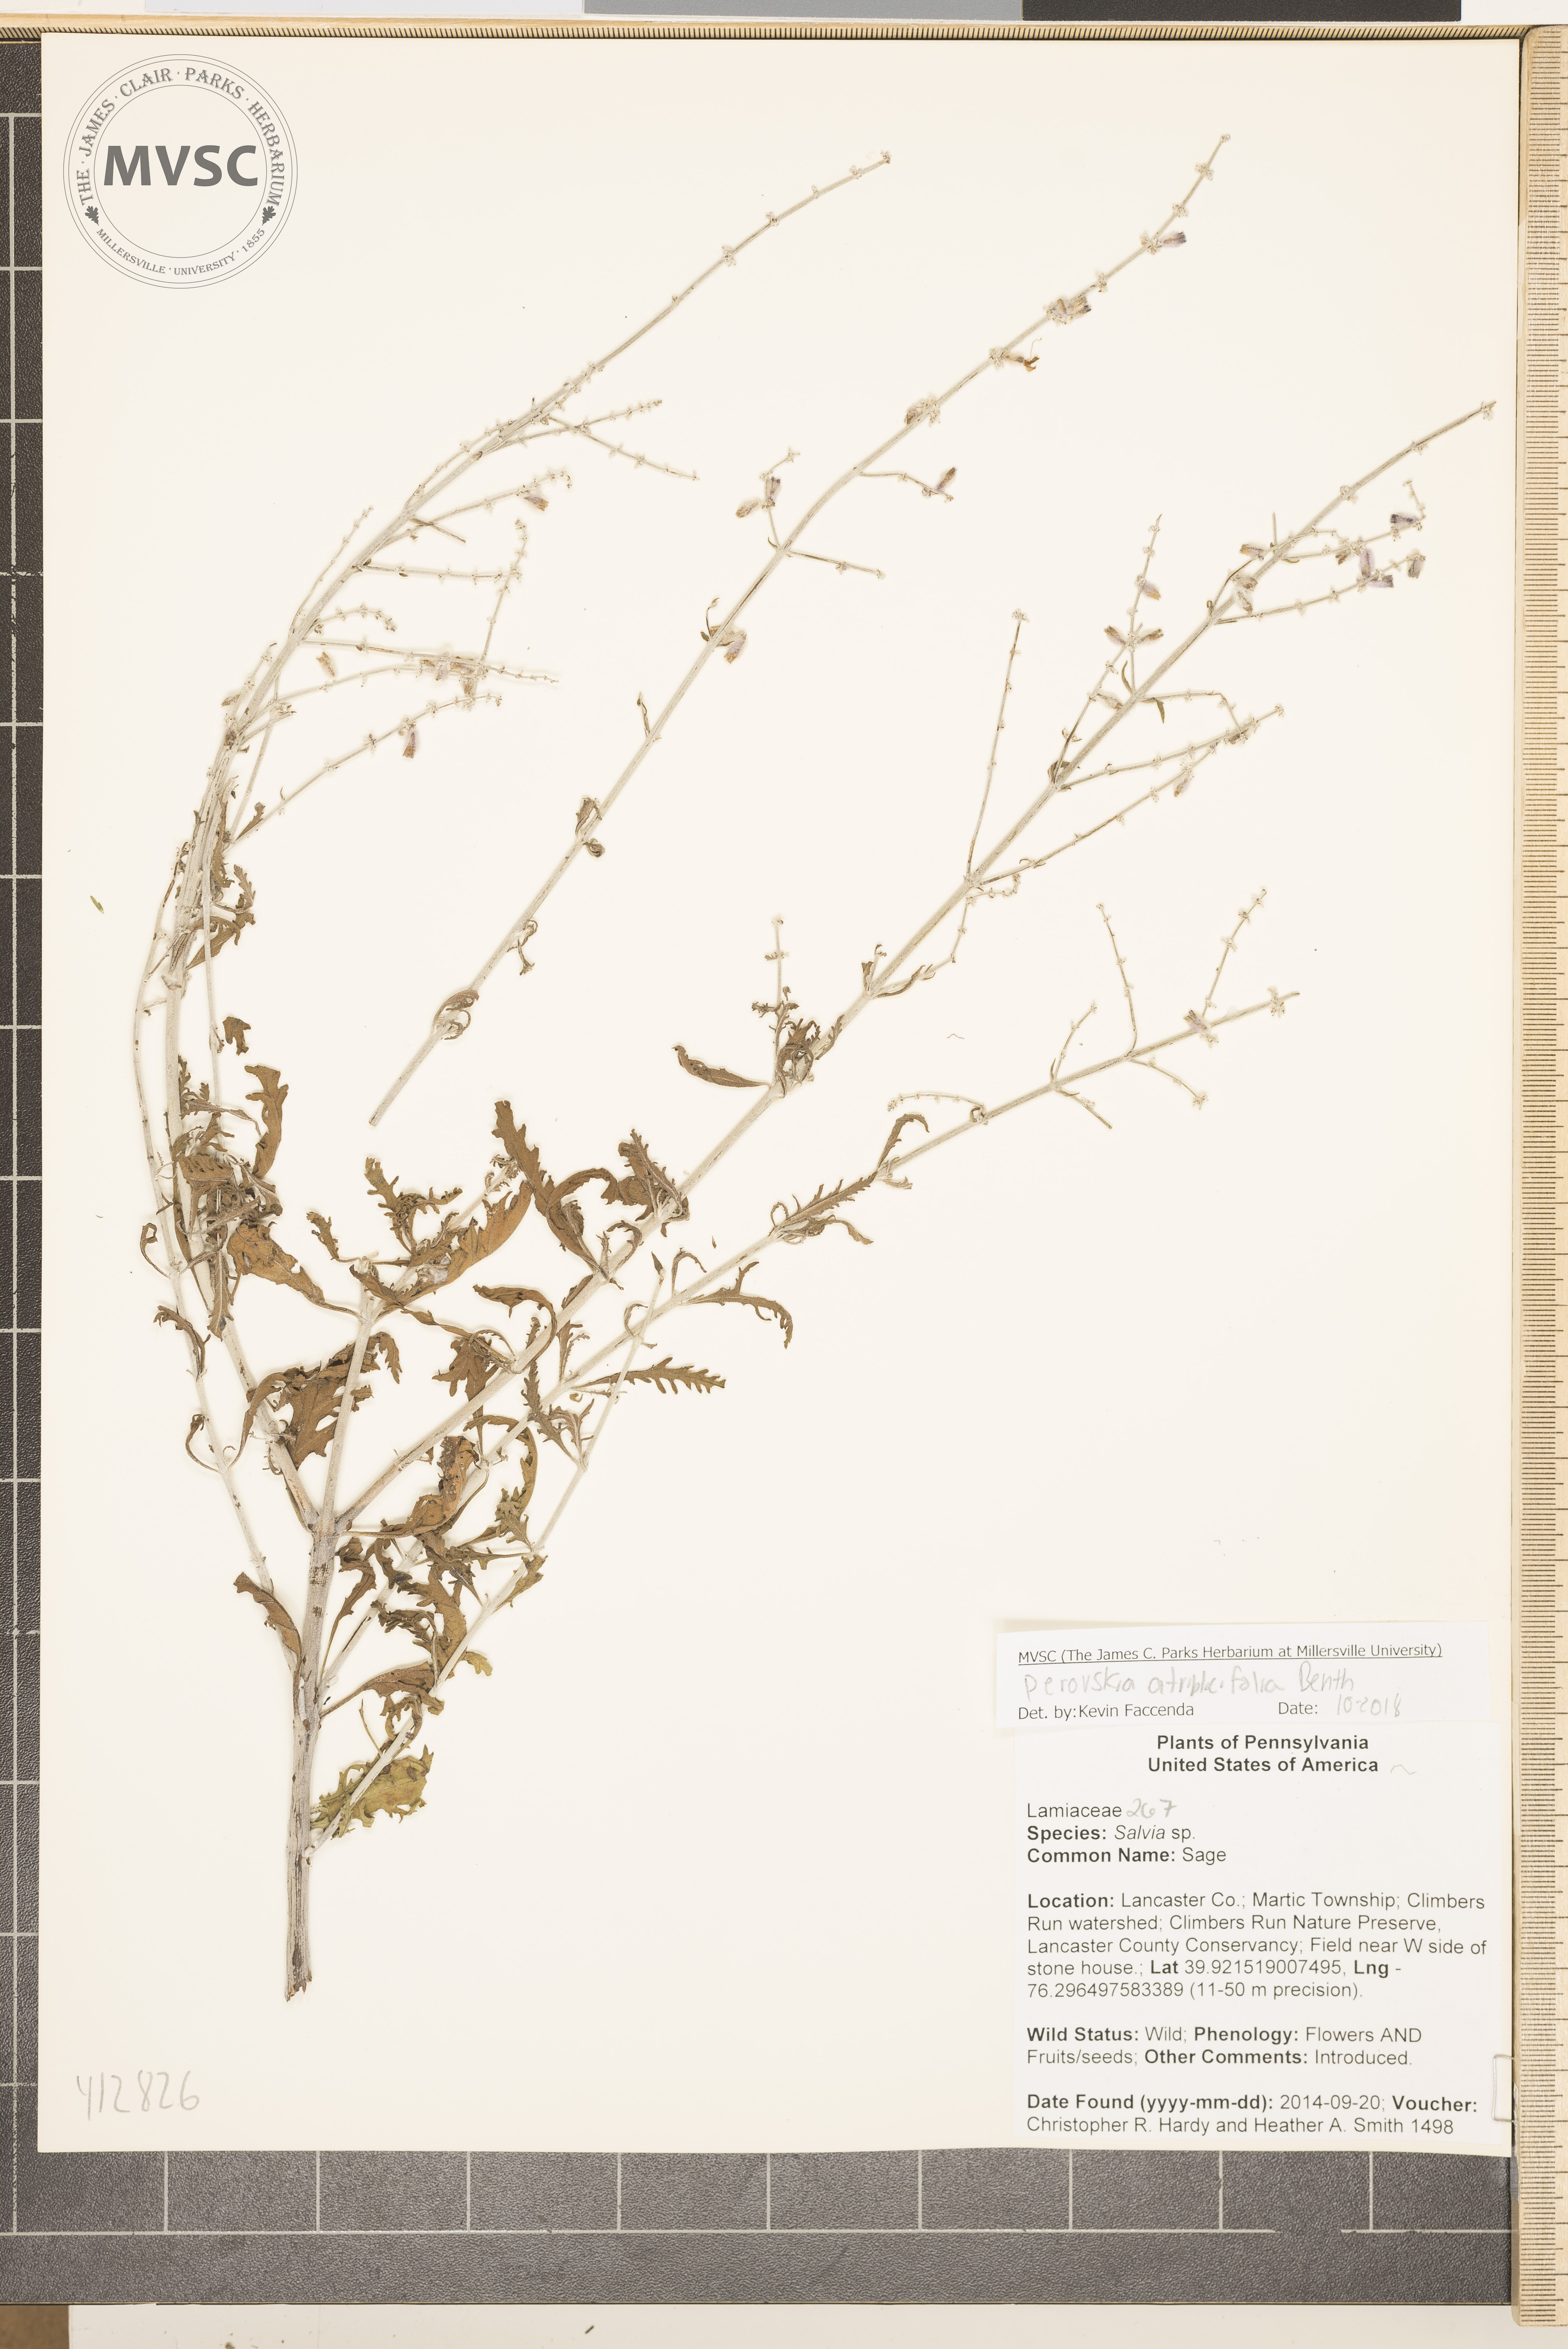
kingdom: Plantae
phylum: Tracheophyta
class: Magnoliopsida
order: Lamiales
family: Lamiaceae
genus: Salvia
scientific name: Salvia yangii
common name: Russian sage
